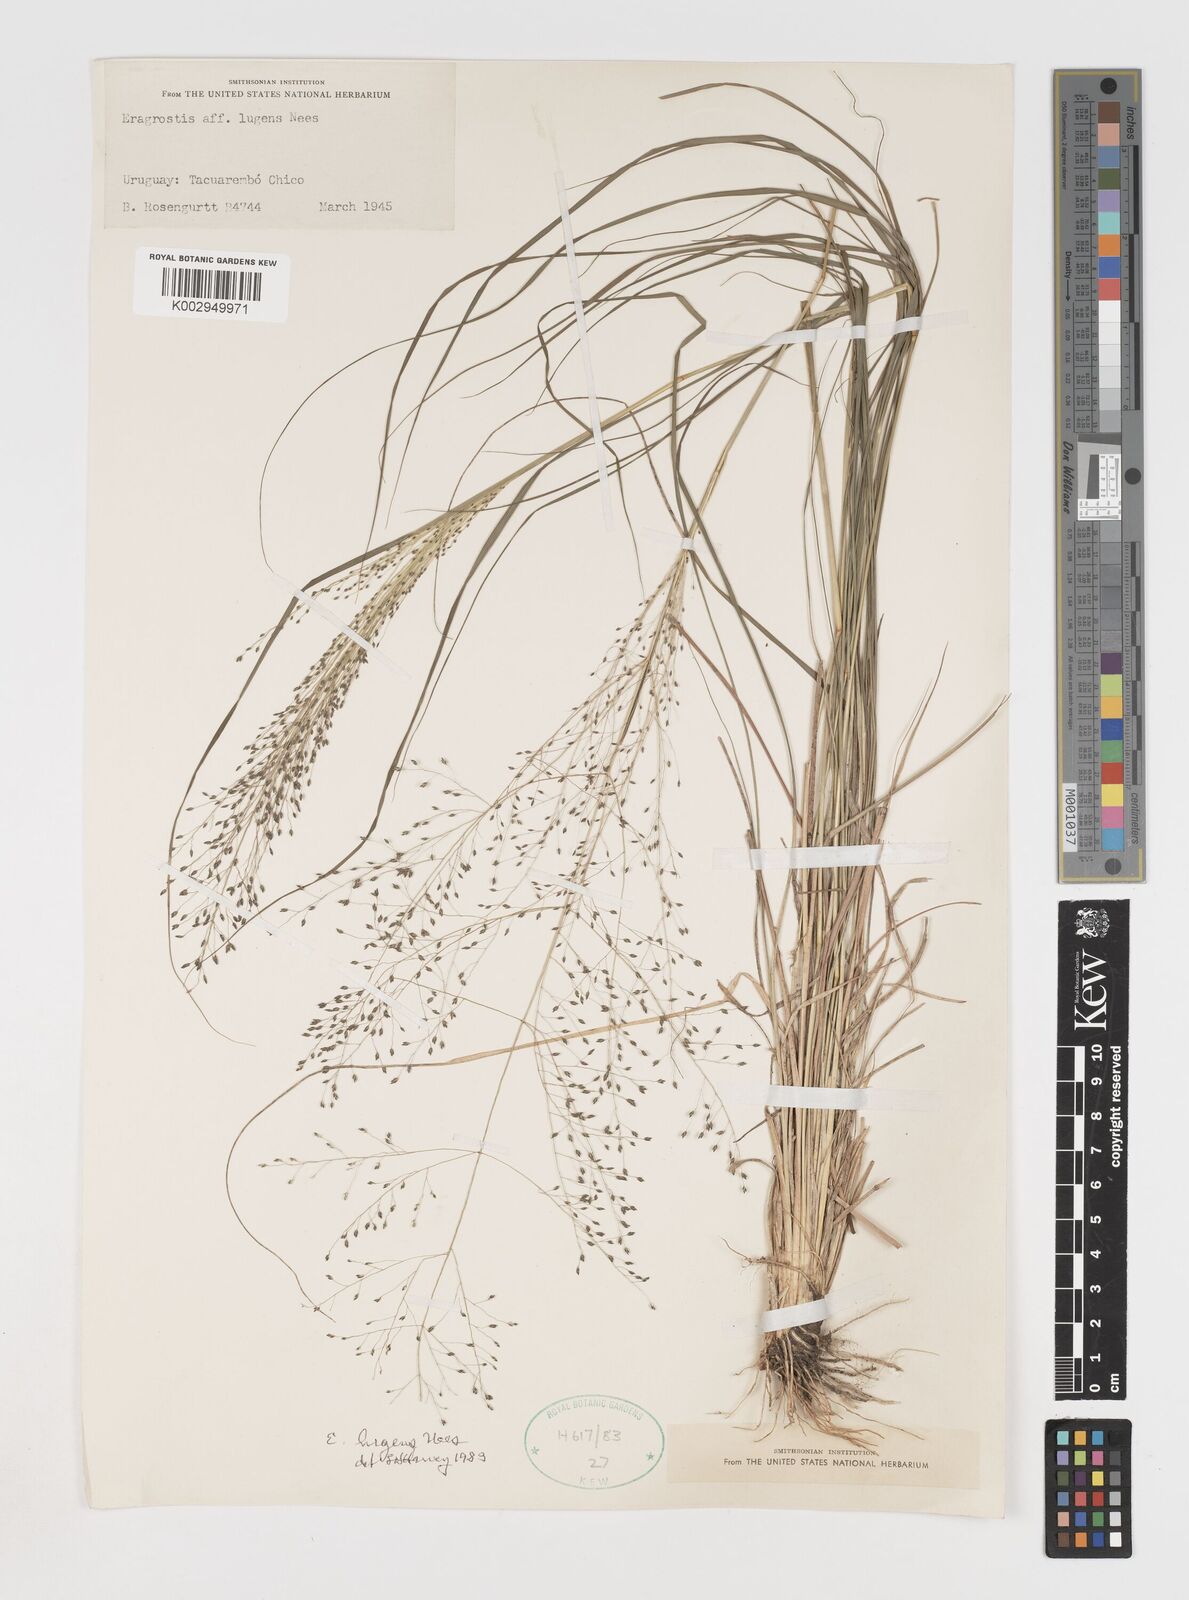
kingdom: Plantae
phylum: Tracheophyta
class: Liliopsida
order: Poales
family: Poaceae
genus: Eragrostis
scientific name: Eragrostis
